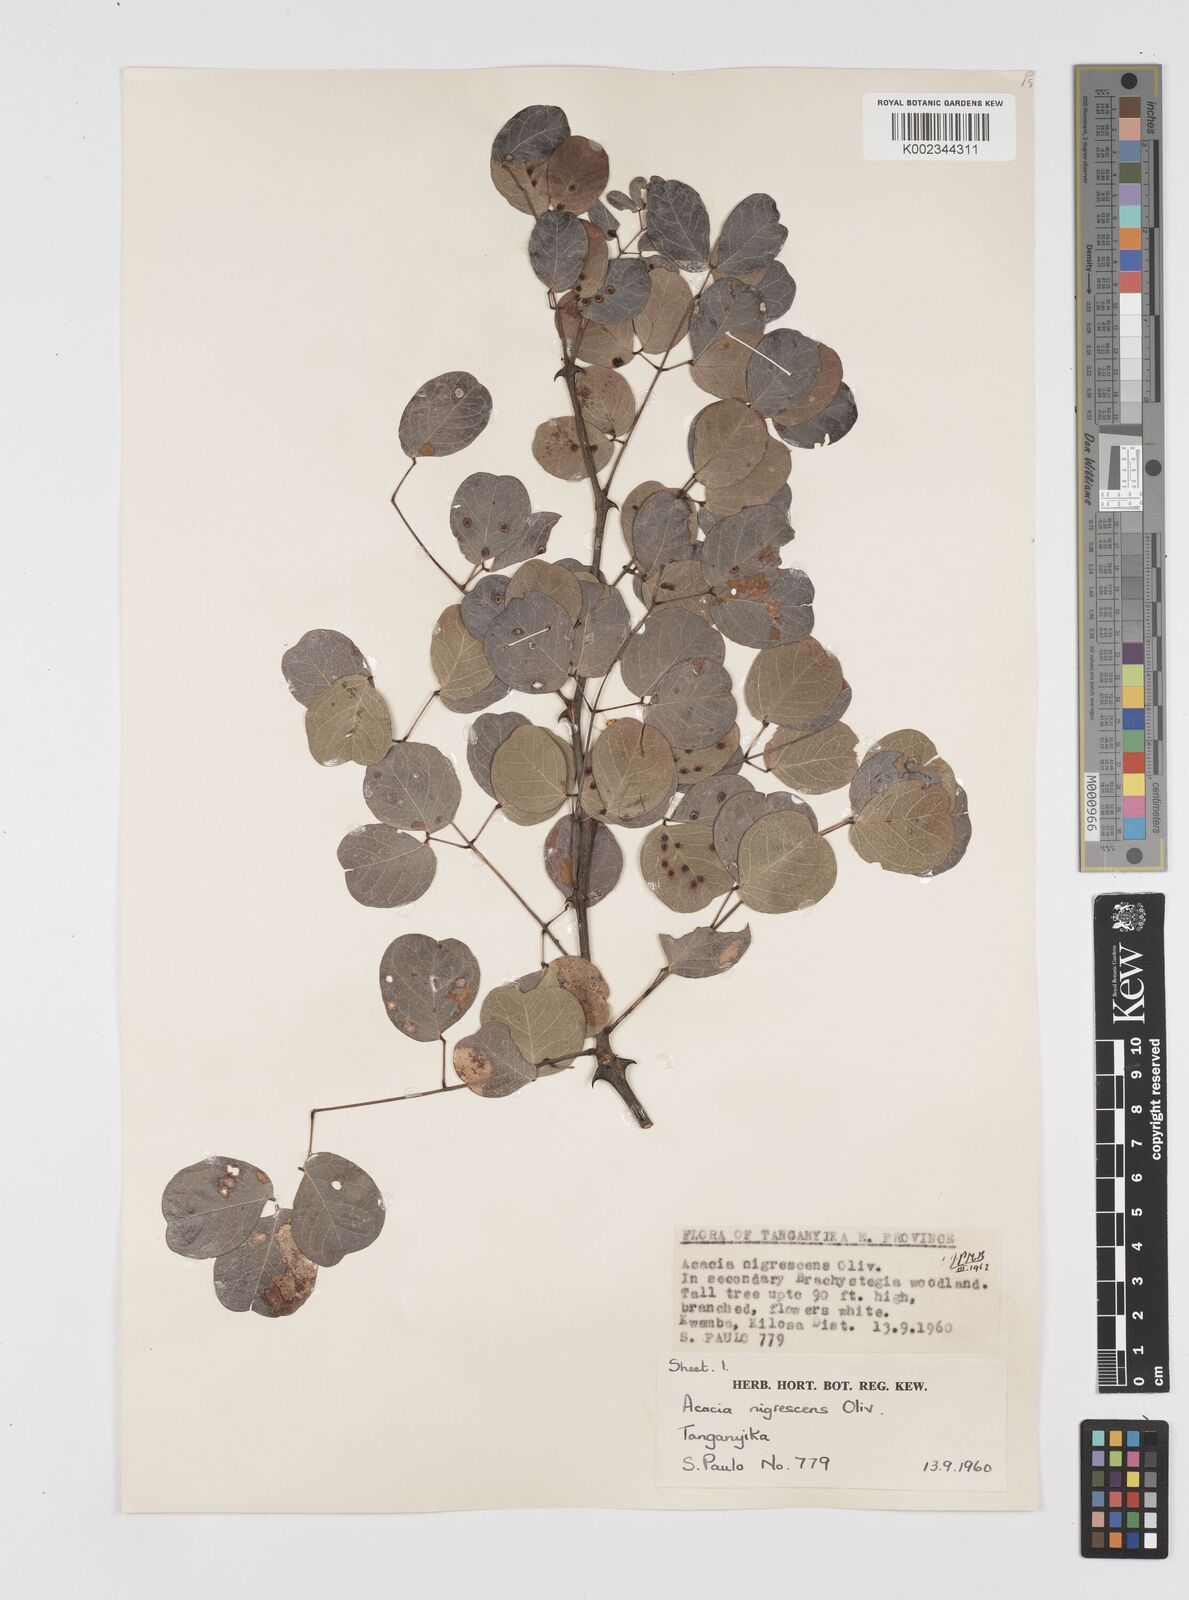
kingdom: Plantae
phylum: Tracheophyta
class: Magnoliopsida
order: Fabales
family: Fabaceae
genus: Senegalia
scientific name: Senegalia nigrescens
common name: Knobthorn
